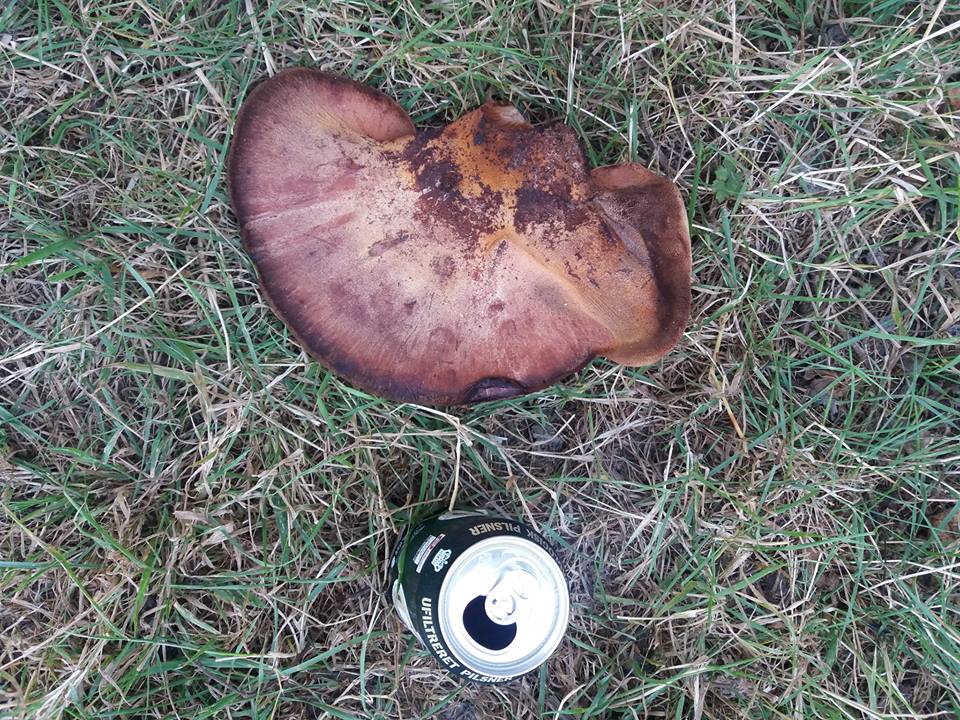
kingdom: Fungi
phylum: Basidiomycota
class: Agaricomycetes
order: Agaricales
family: Fistulinaceae
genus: Fistulina
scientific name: Fistulina hepatica
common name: oksetunge
